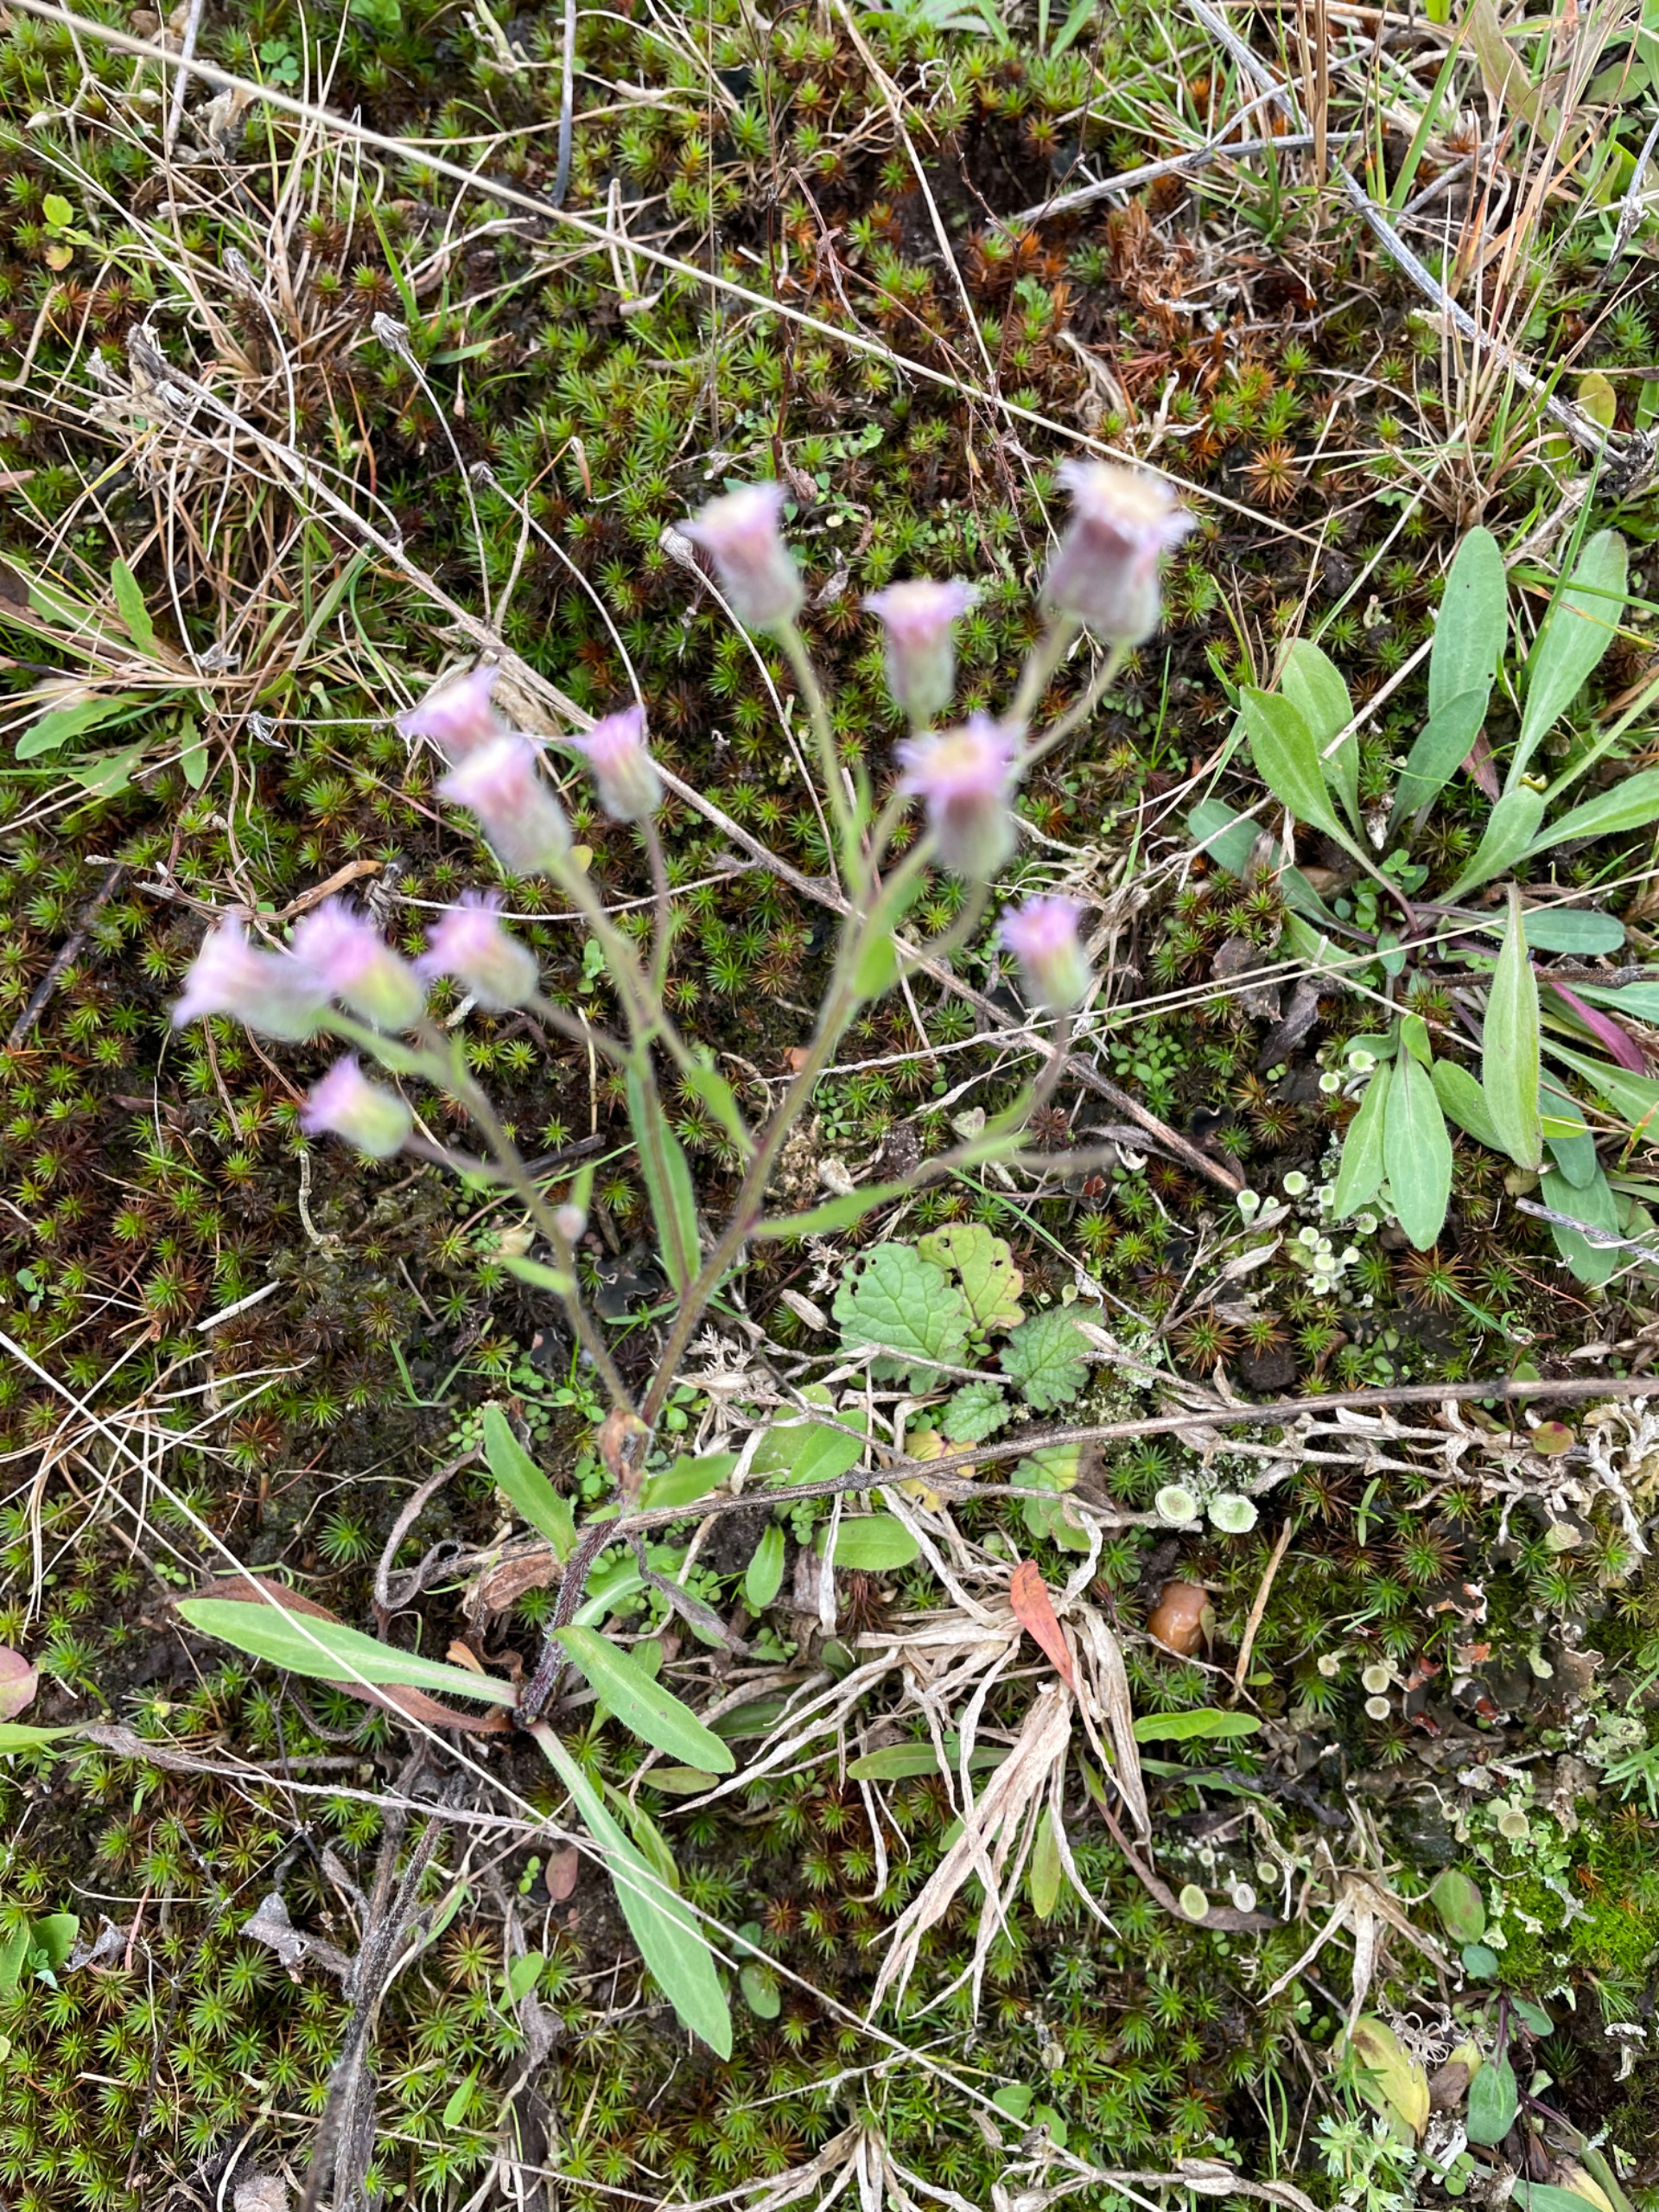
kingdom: Plantae
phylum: Tracheophyta
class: Magnoliopsida
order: Asterales
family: Asteraceae
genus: Erigeron
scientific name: Erigeron acris
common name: Bitter bakkestjerne
